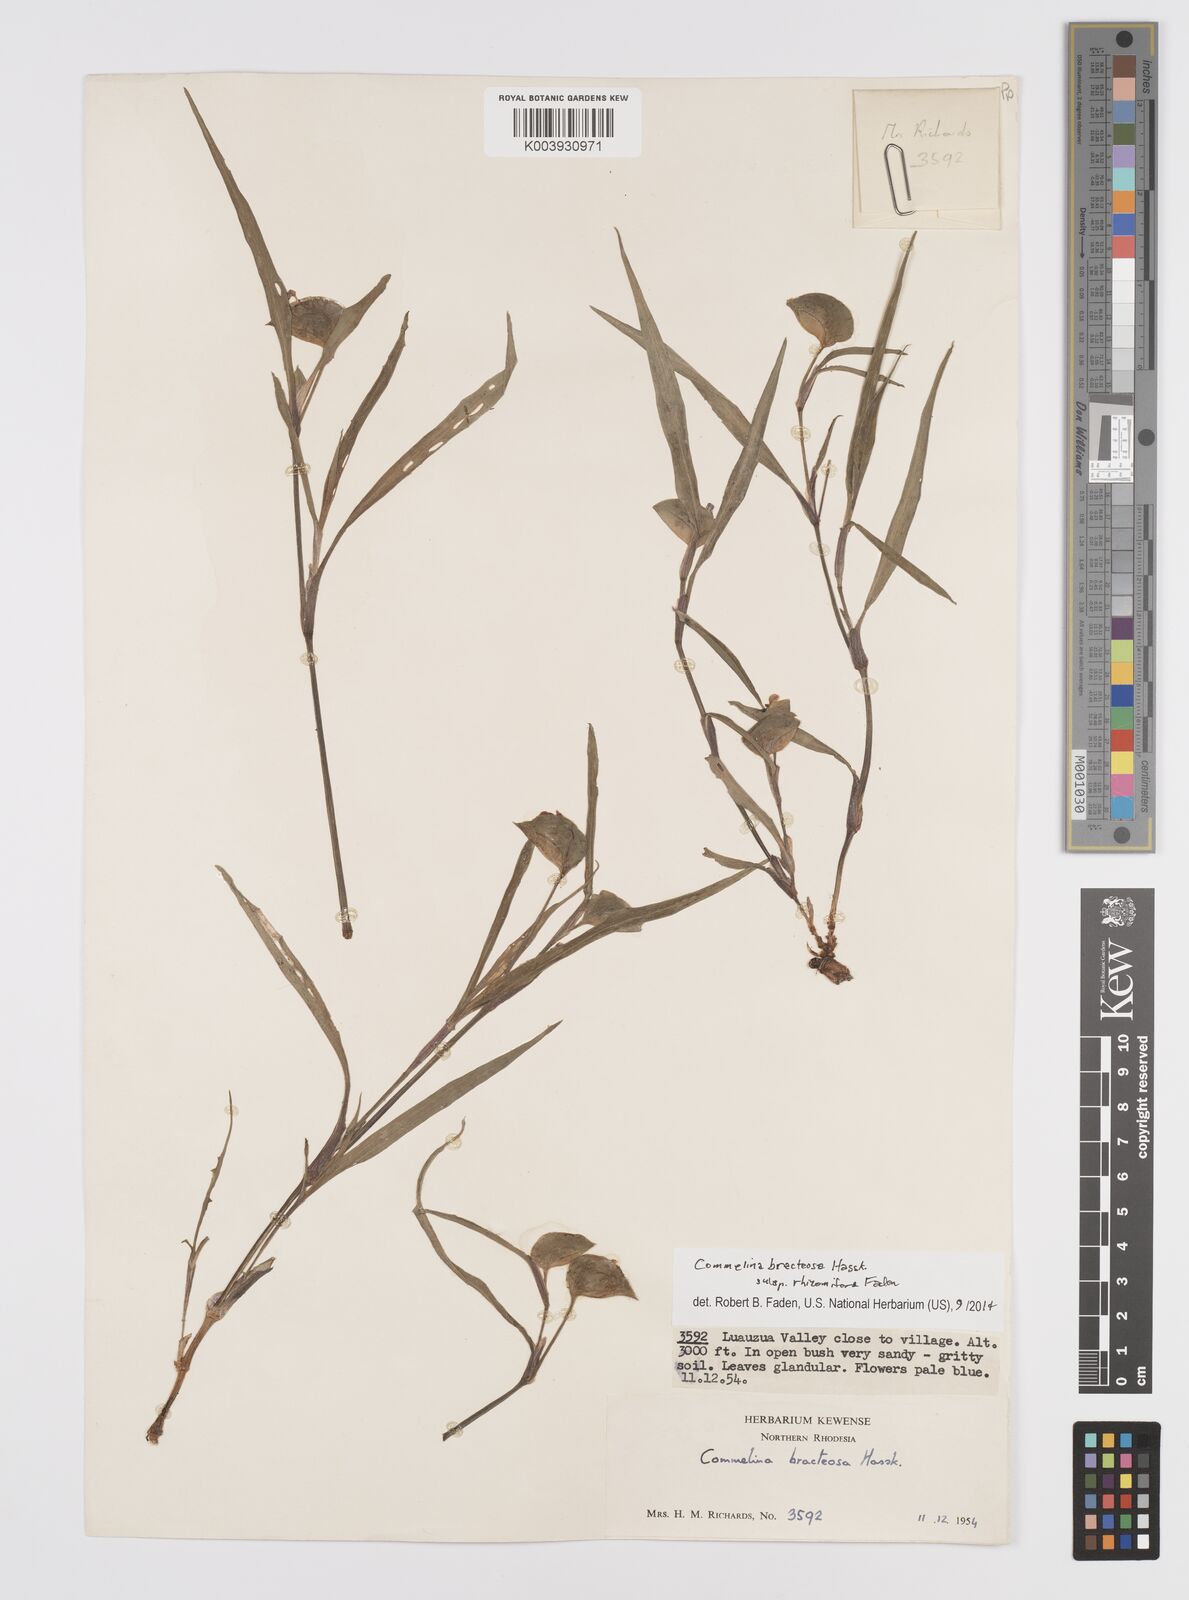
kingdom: Plantae
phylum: Tracheophyta
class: Liliopsida
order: Commelinales
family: Commelinaceae
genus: Commelina
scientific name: Commelina bracteosa
